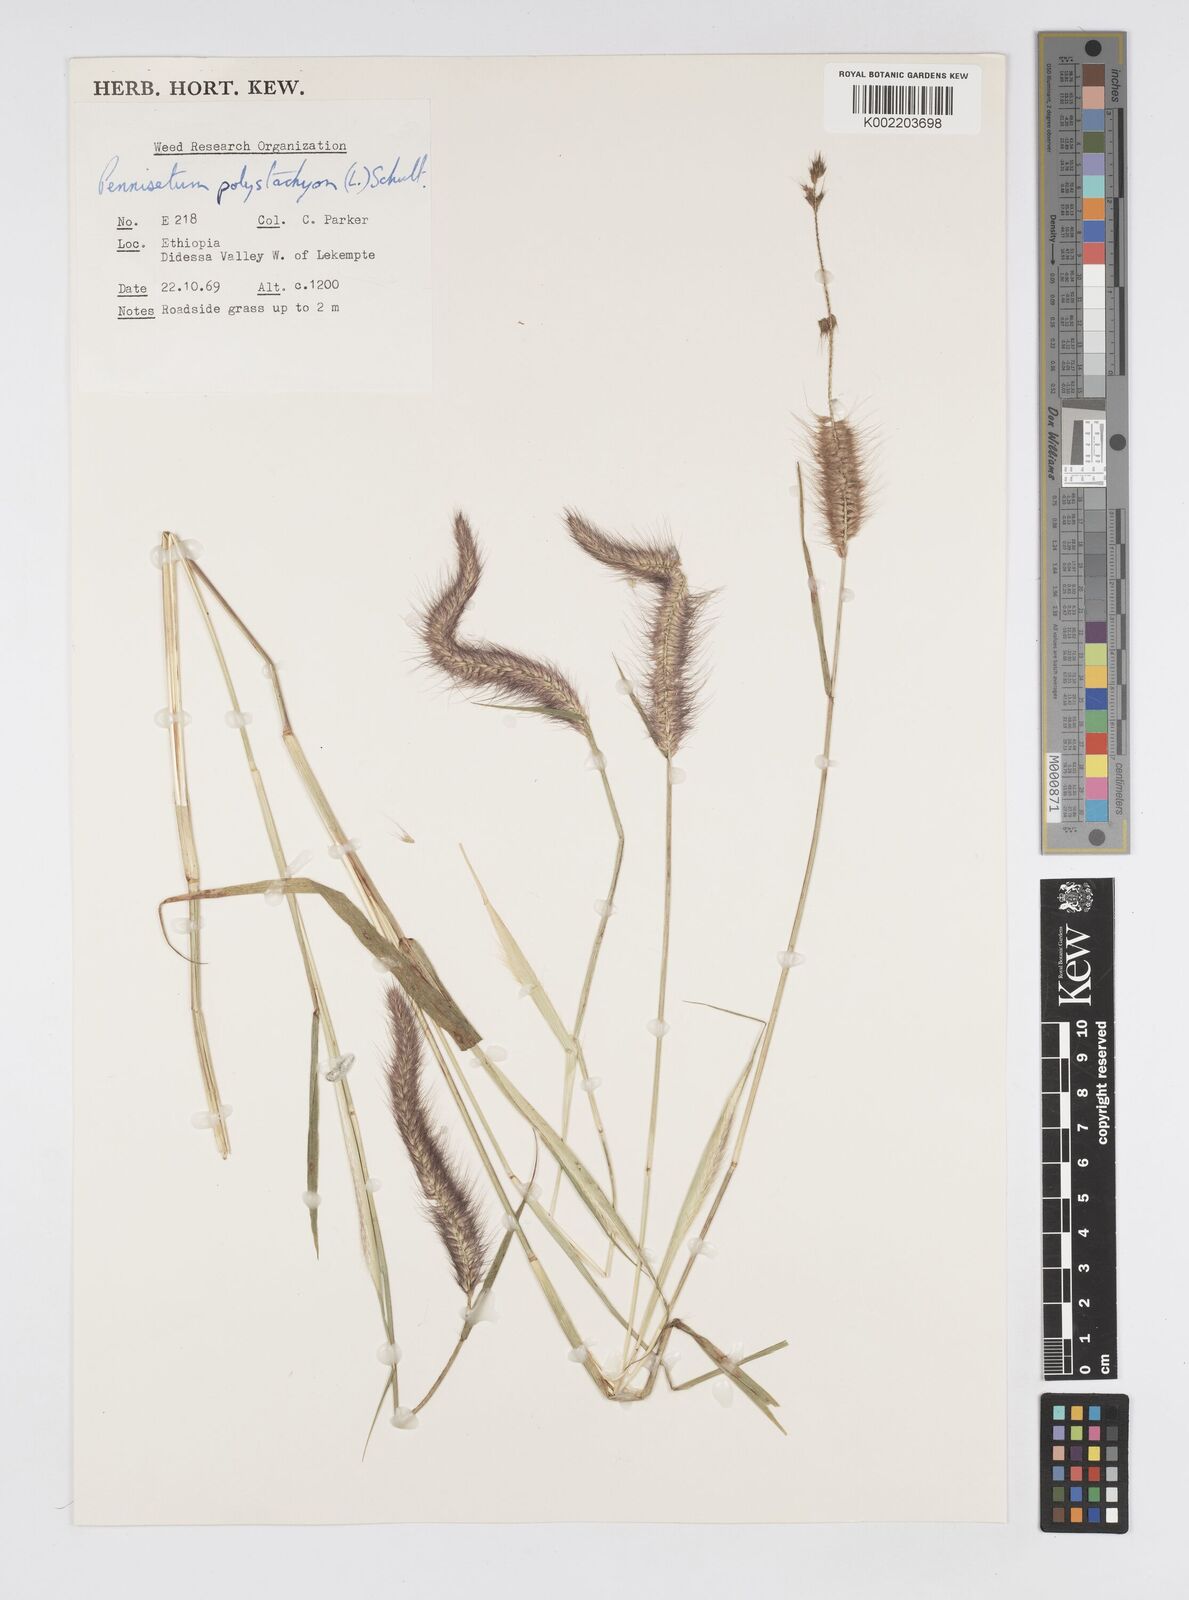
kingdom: Plantae
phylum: Tracheophyta
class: Liliopsida
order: Poales
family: Poaceae
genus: Setaria
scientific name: Setaria parviflora
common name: Knotroot bristle-grass
